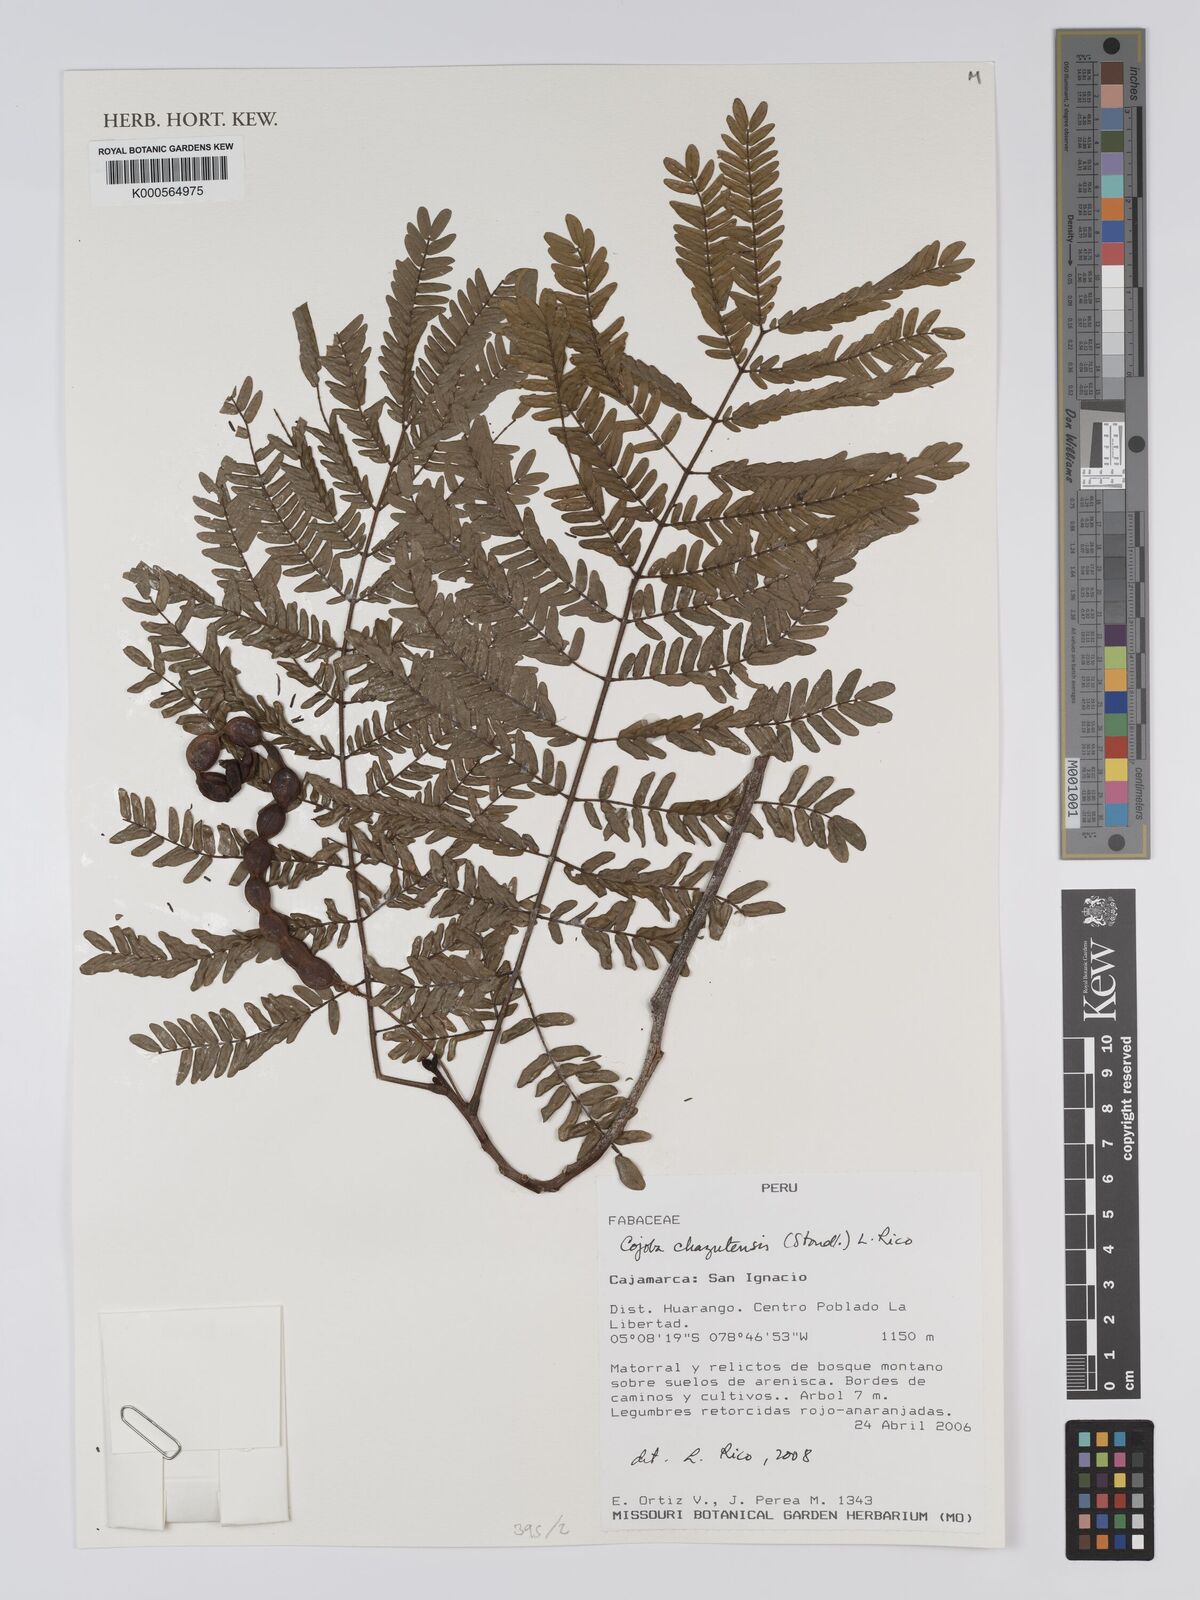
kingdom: Plantae
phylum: Tracheophyta
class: Magnoliopsida
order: Fabales
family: Fabaceae
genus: Cojoba
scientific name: Cojoba chazutensis
